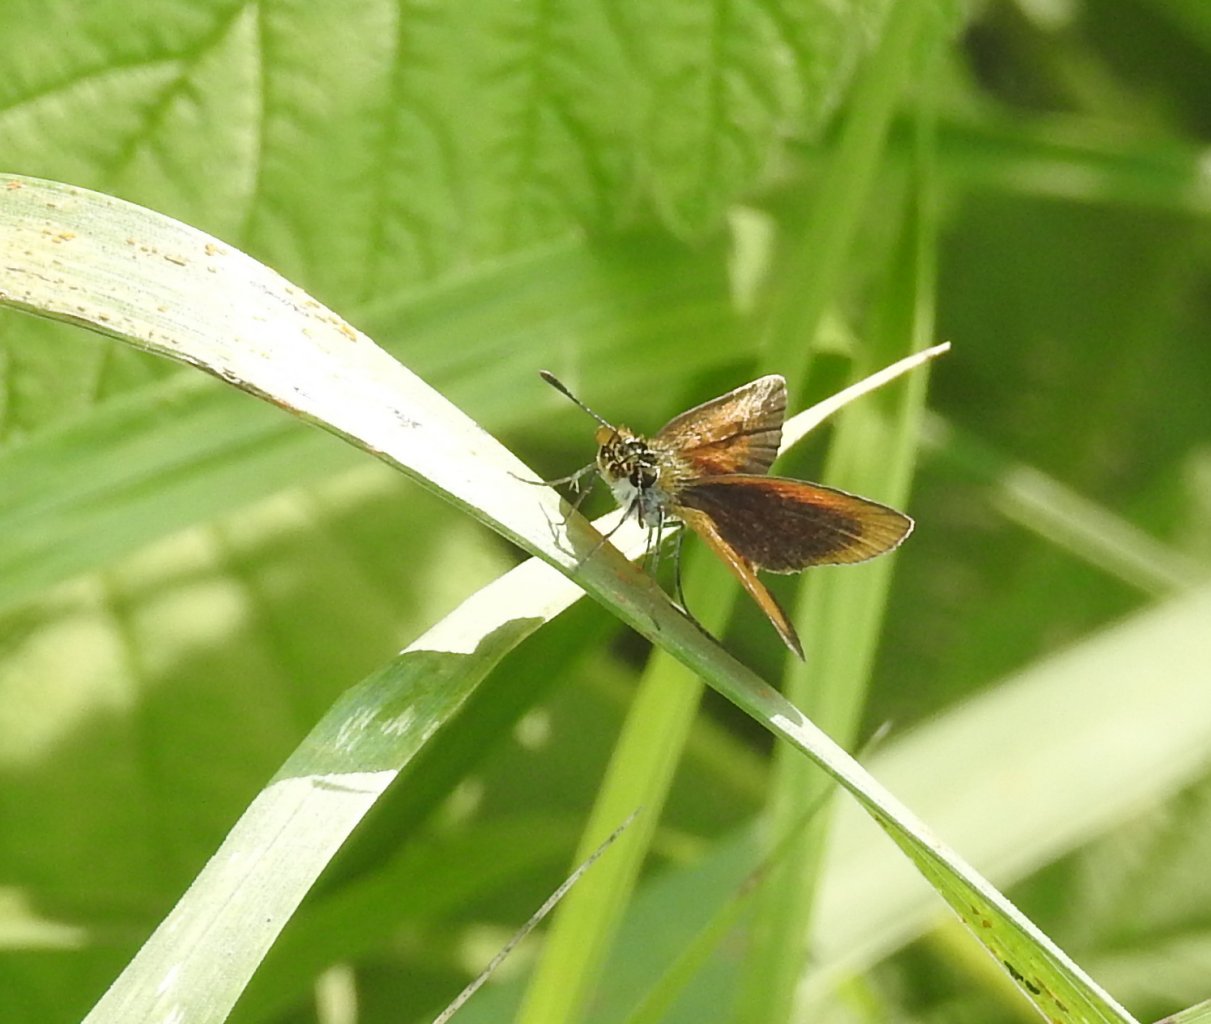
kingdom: Animalia
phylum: Arthropoda
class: Insecta
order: Lepidoptera
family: Hesperiidae
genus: Ancyloxypha
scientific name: Ancyloxypha numitor
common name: Least Skipper
